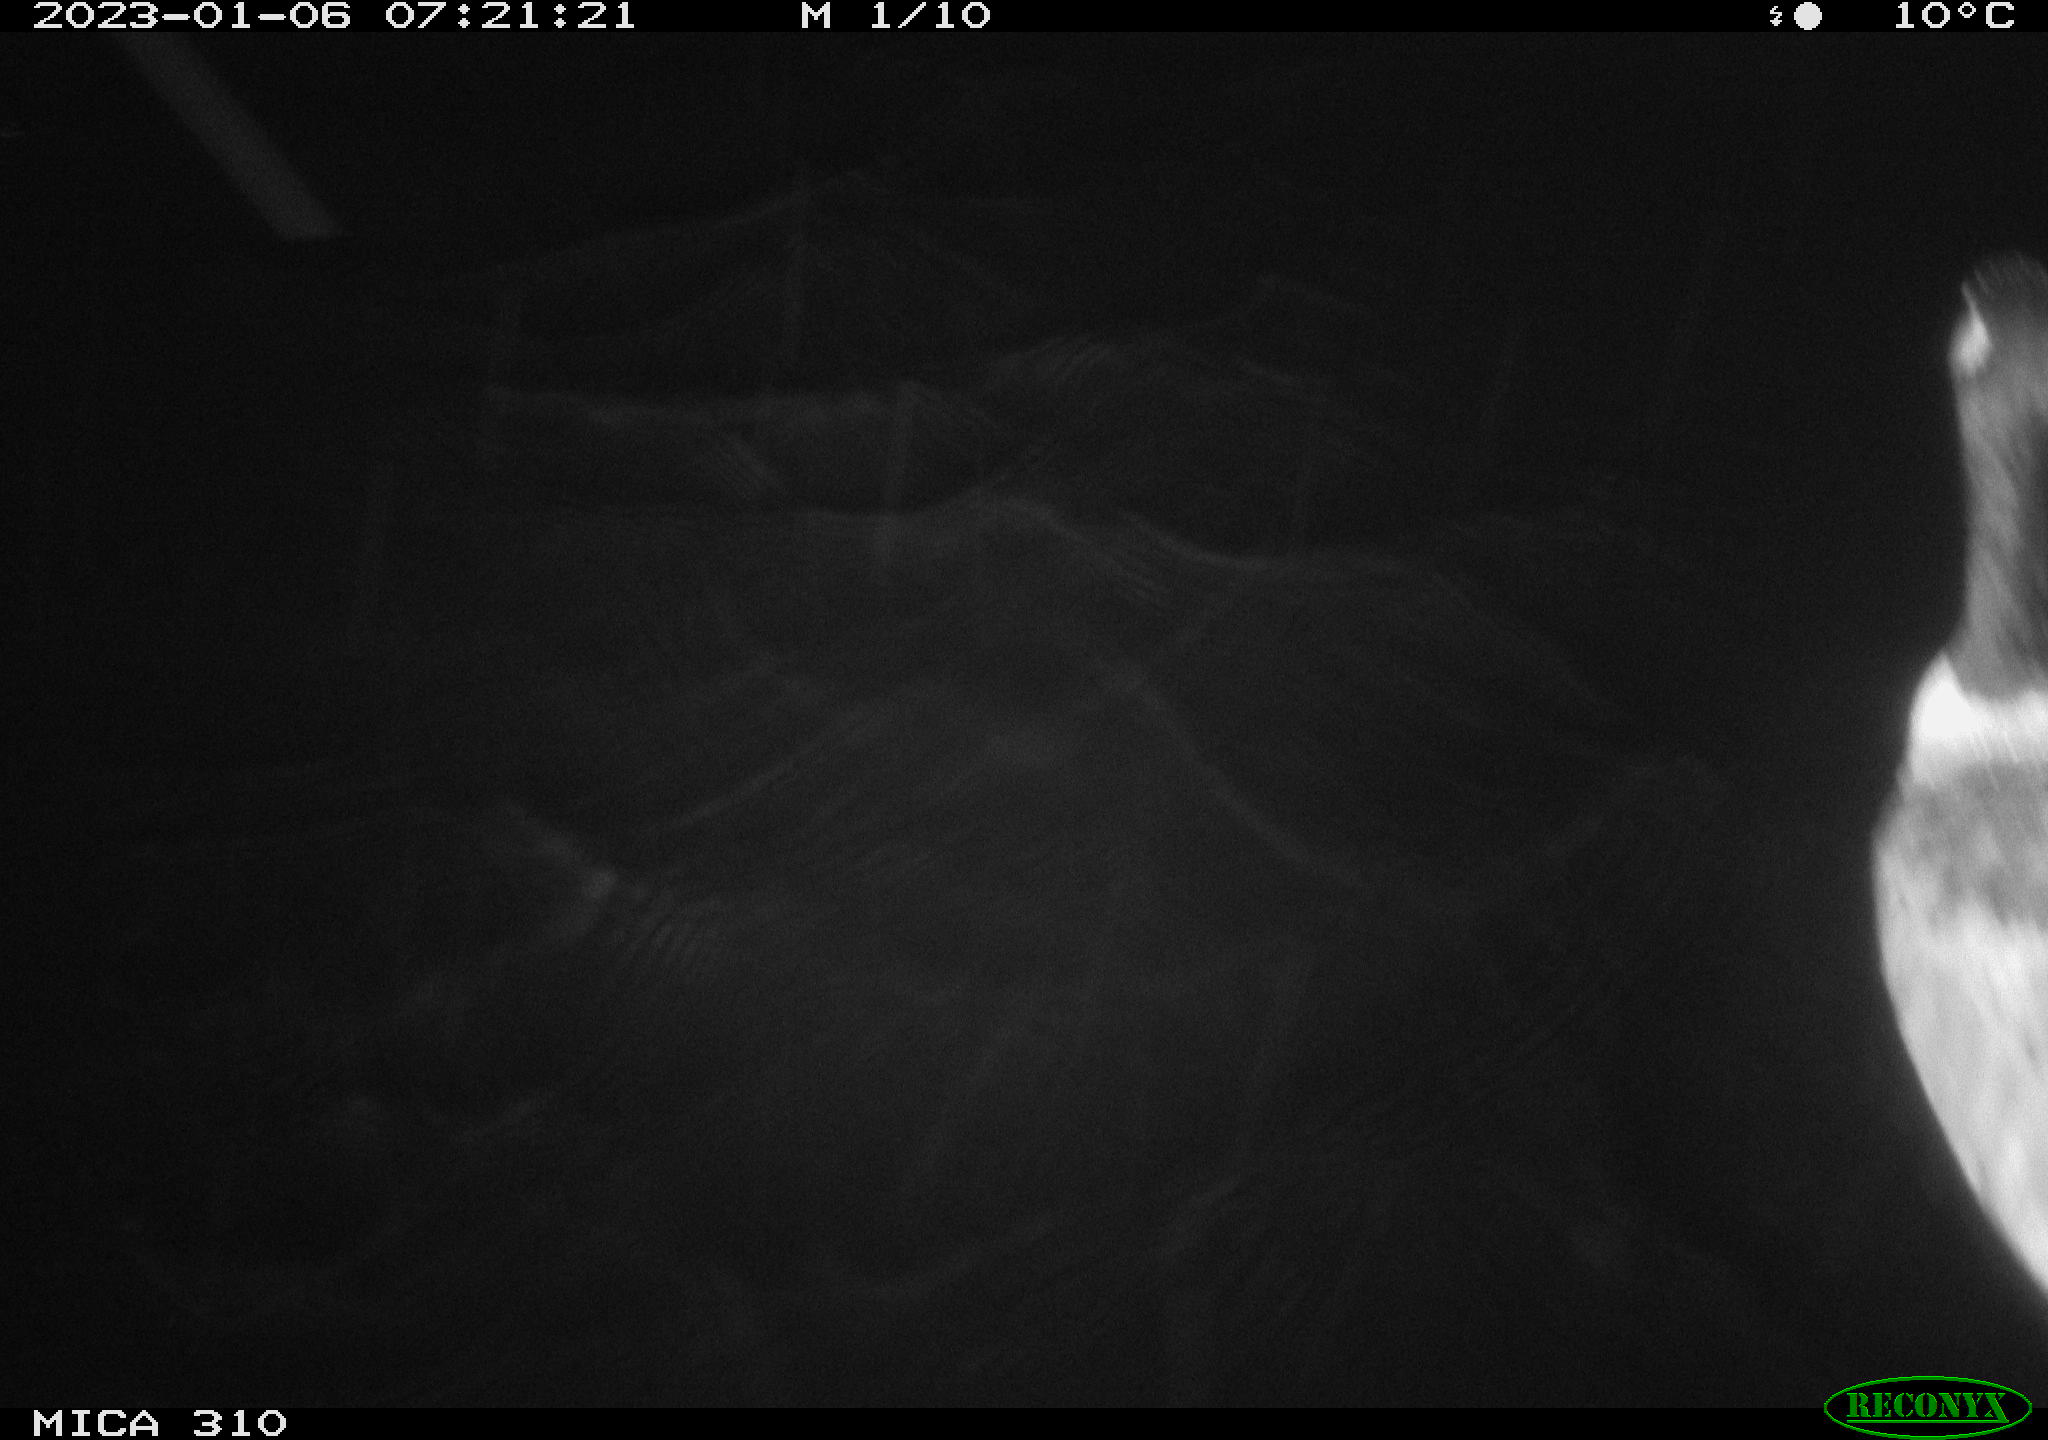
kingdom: Animalia
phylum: Chordata
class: Aves
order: Anseriformes
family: Anatidae
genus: Anas
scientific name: Anas
